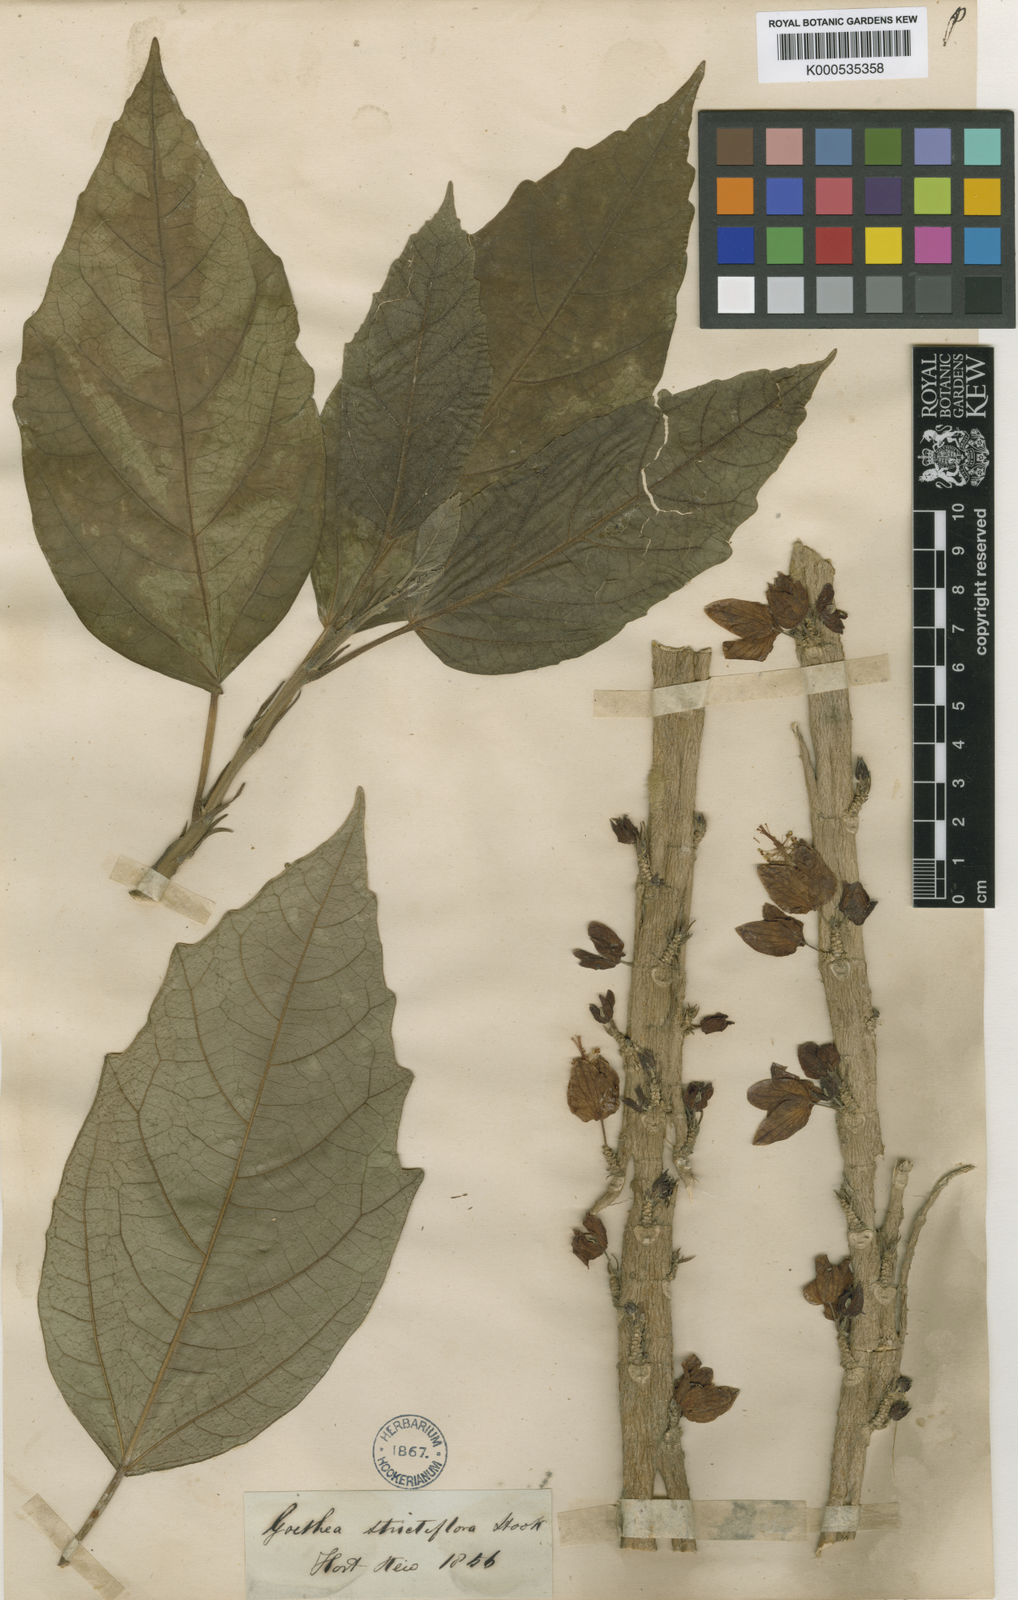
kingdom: Plantae
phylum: Tracheophyta
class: Magnoliopsida
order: Malvales
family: Malvaceae
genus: Pavonia
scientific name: Pavonia strictiflora
